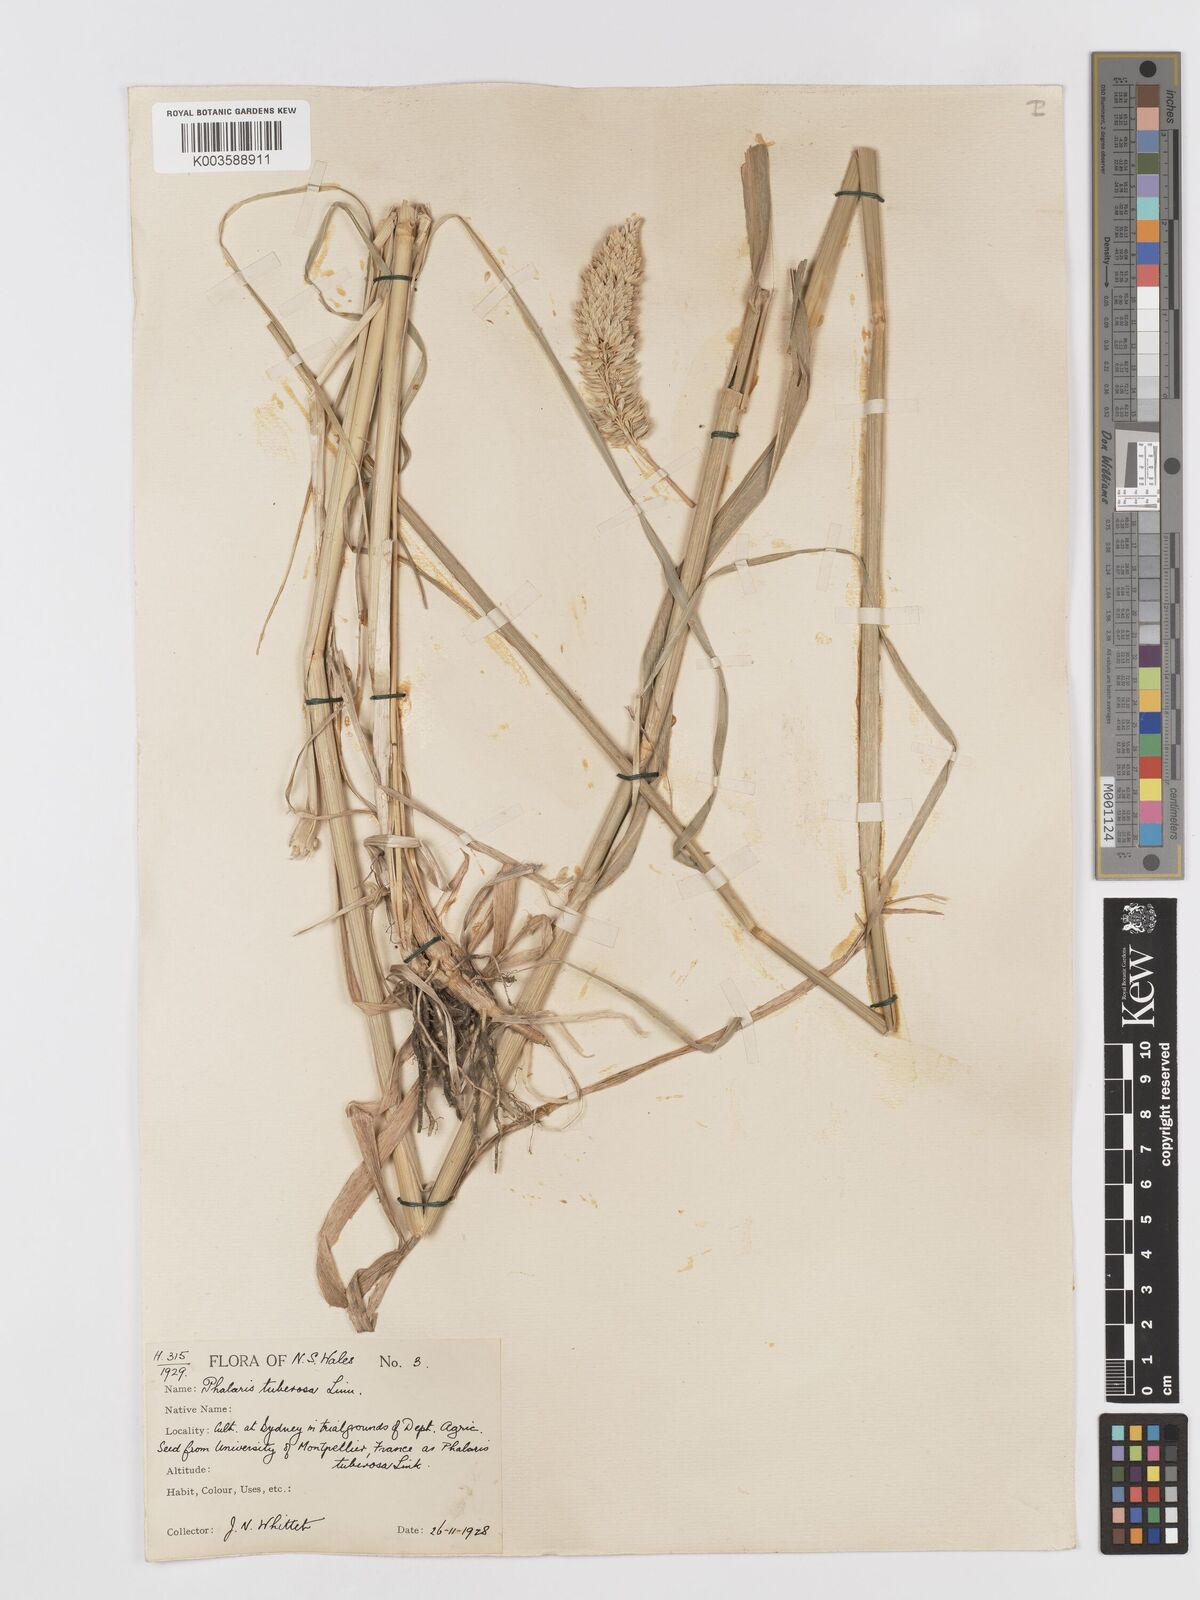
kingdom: Plantae
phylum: Tracheophyta
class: Liliopsida
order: Poales
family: Poaceae
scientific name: Poaceae
